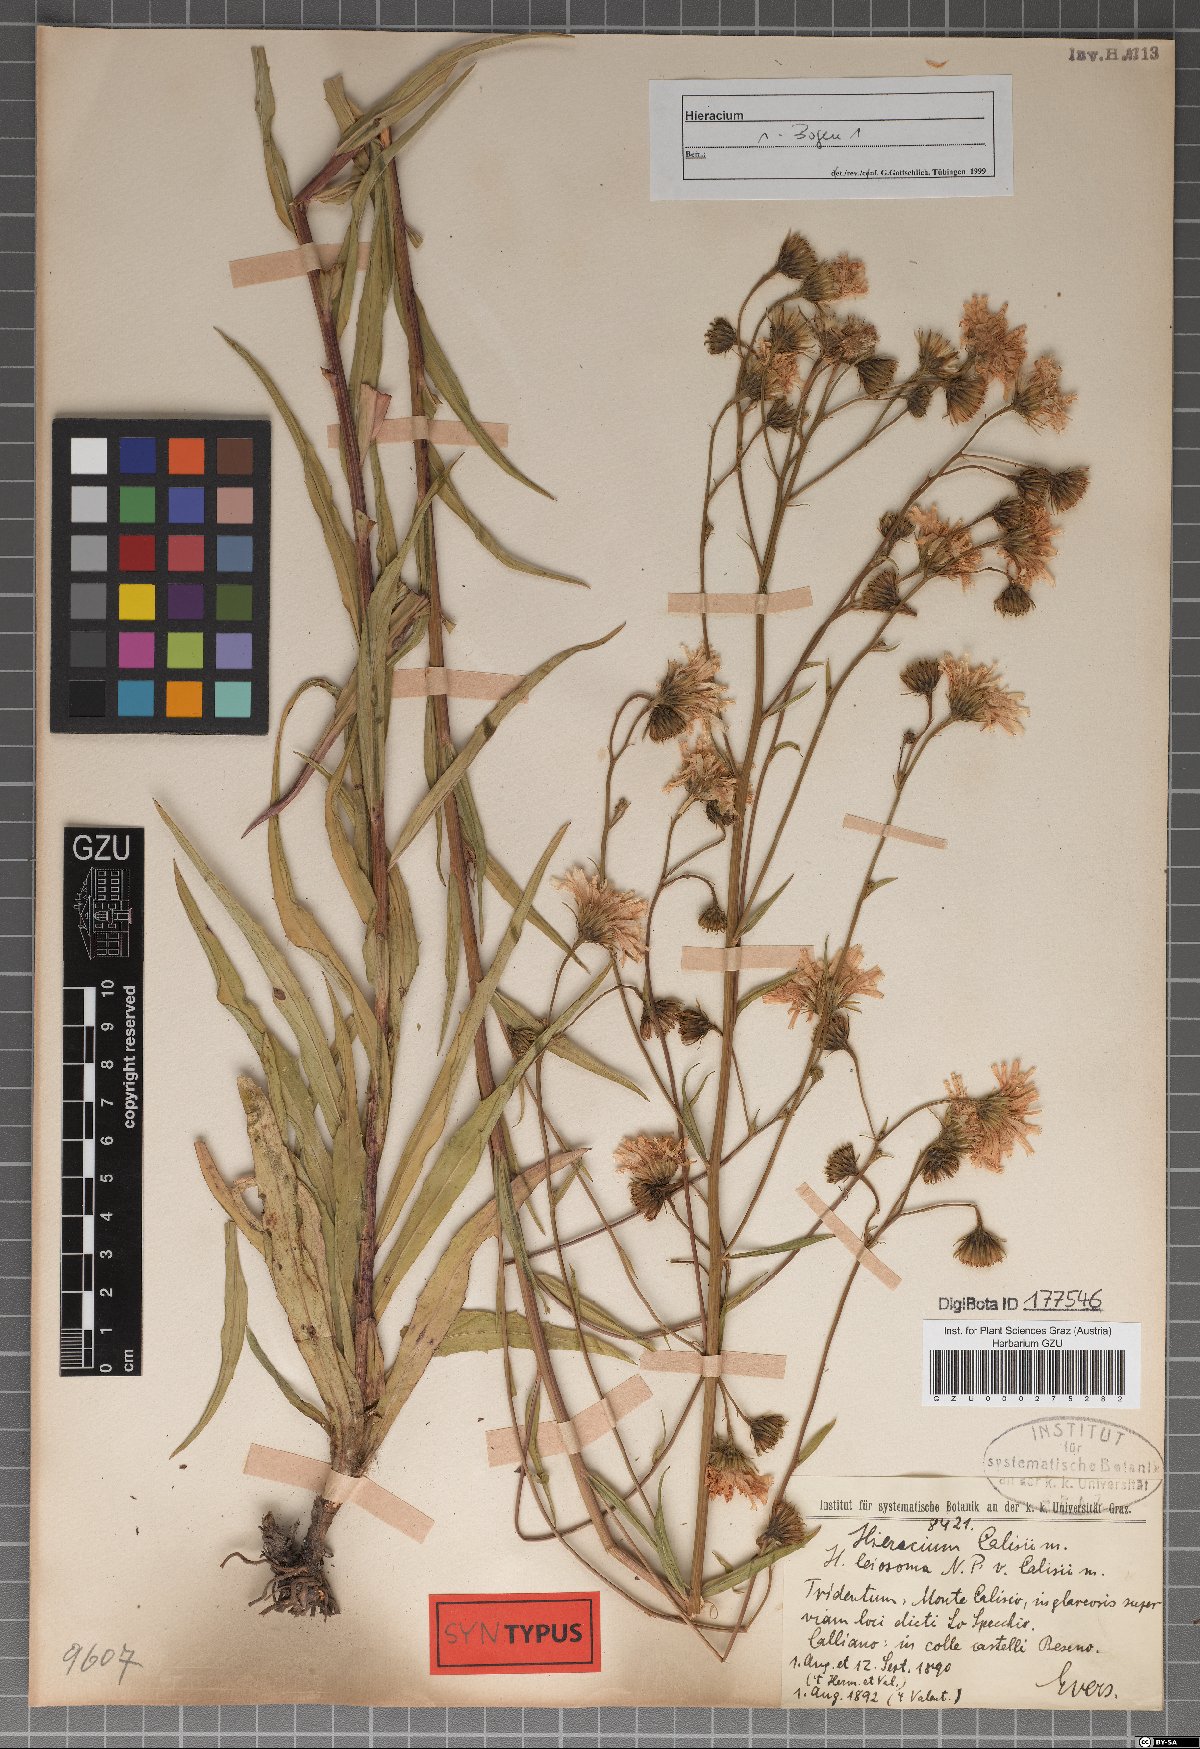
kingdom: Plantae
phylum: Tracheophyta
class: Magnoliopsida
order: Asterales
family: Asteraceae
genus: Hieracium
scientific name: Hieracium leiocephalum
